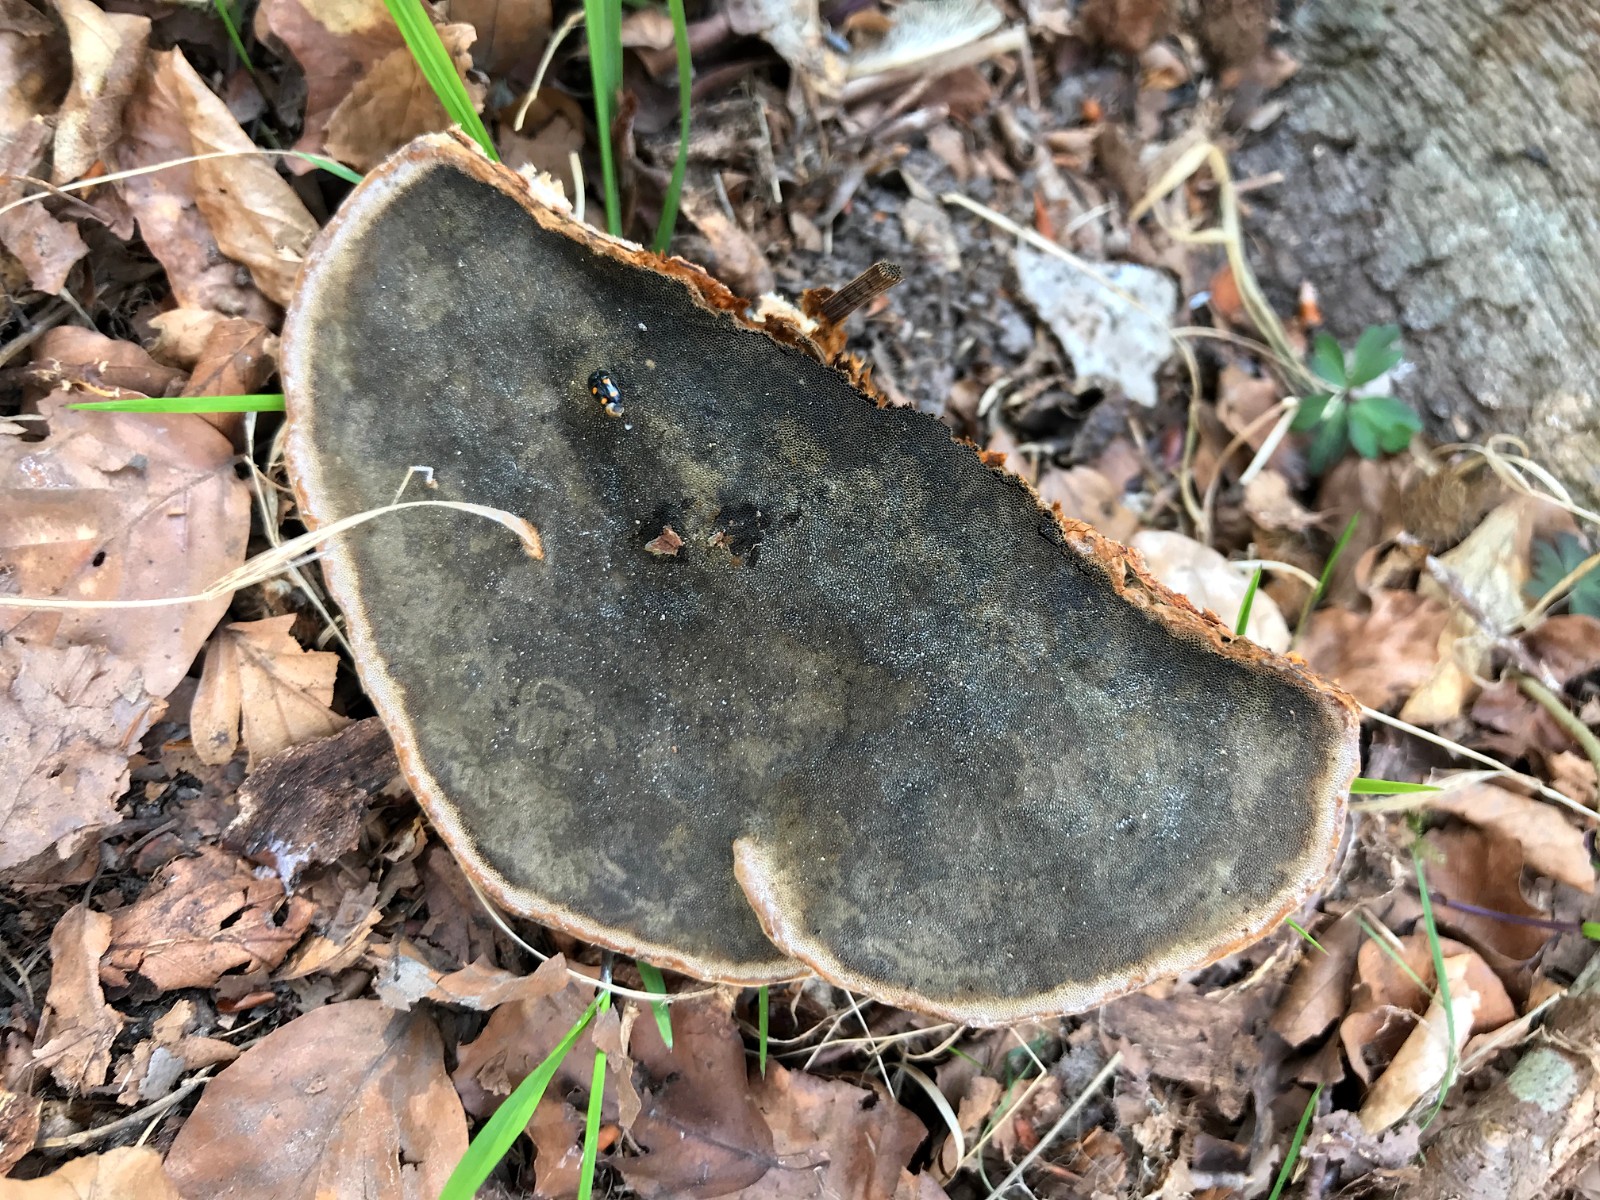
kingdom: Fungi
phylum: Basidiomycota
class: Agaricomycetes
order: Polyporales
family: Polyporaceae
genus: Fomes
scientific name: Fomes fomentarius
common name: tøndersvamp
